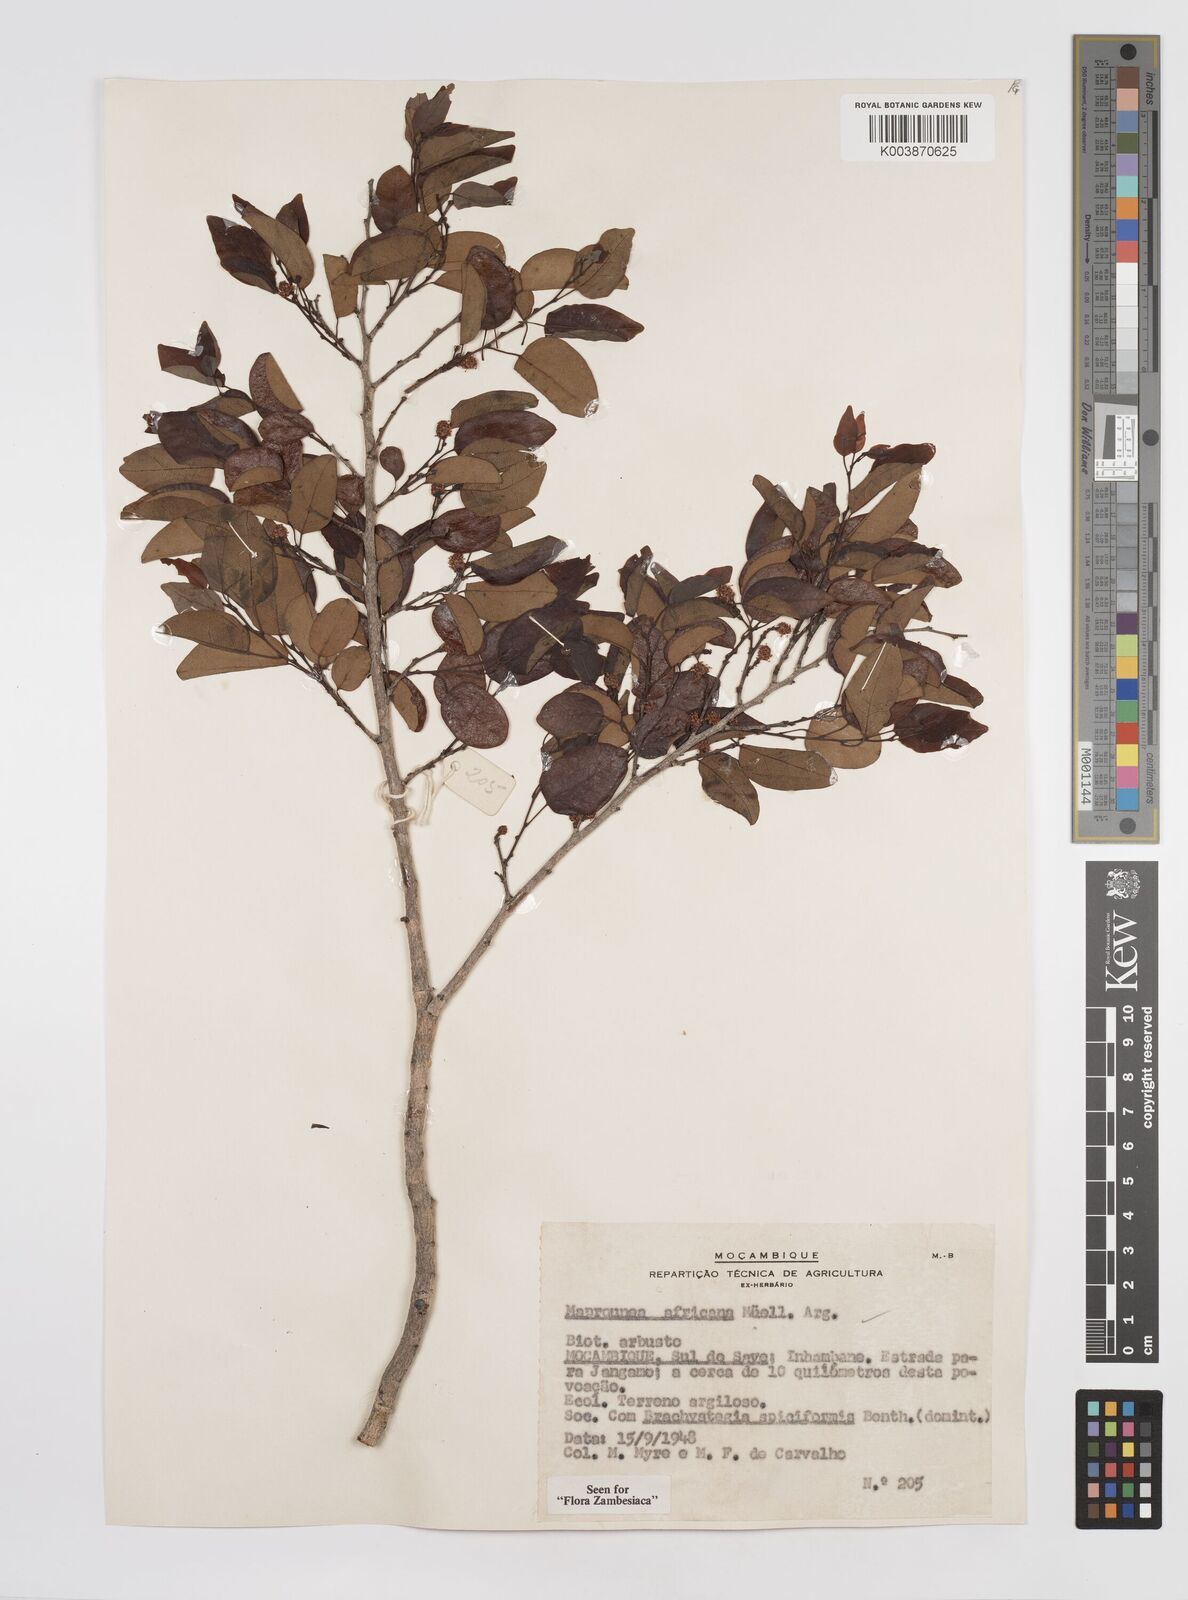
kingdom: Plantae
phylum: Tracheophyta
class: Magnoliopsida
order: Malpighiales
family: Euphorbiaceae
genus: Maprounea
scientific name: Maprounea africana
